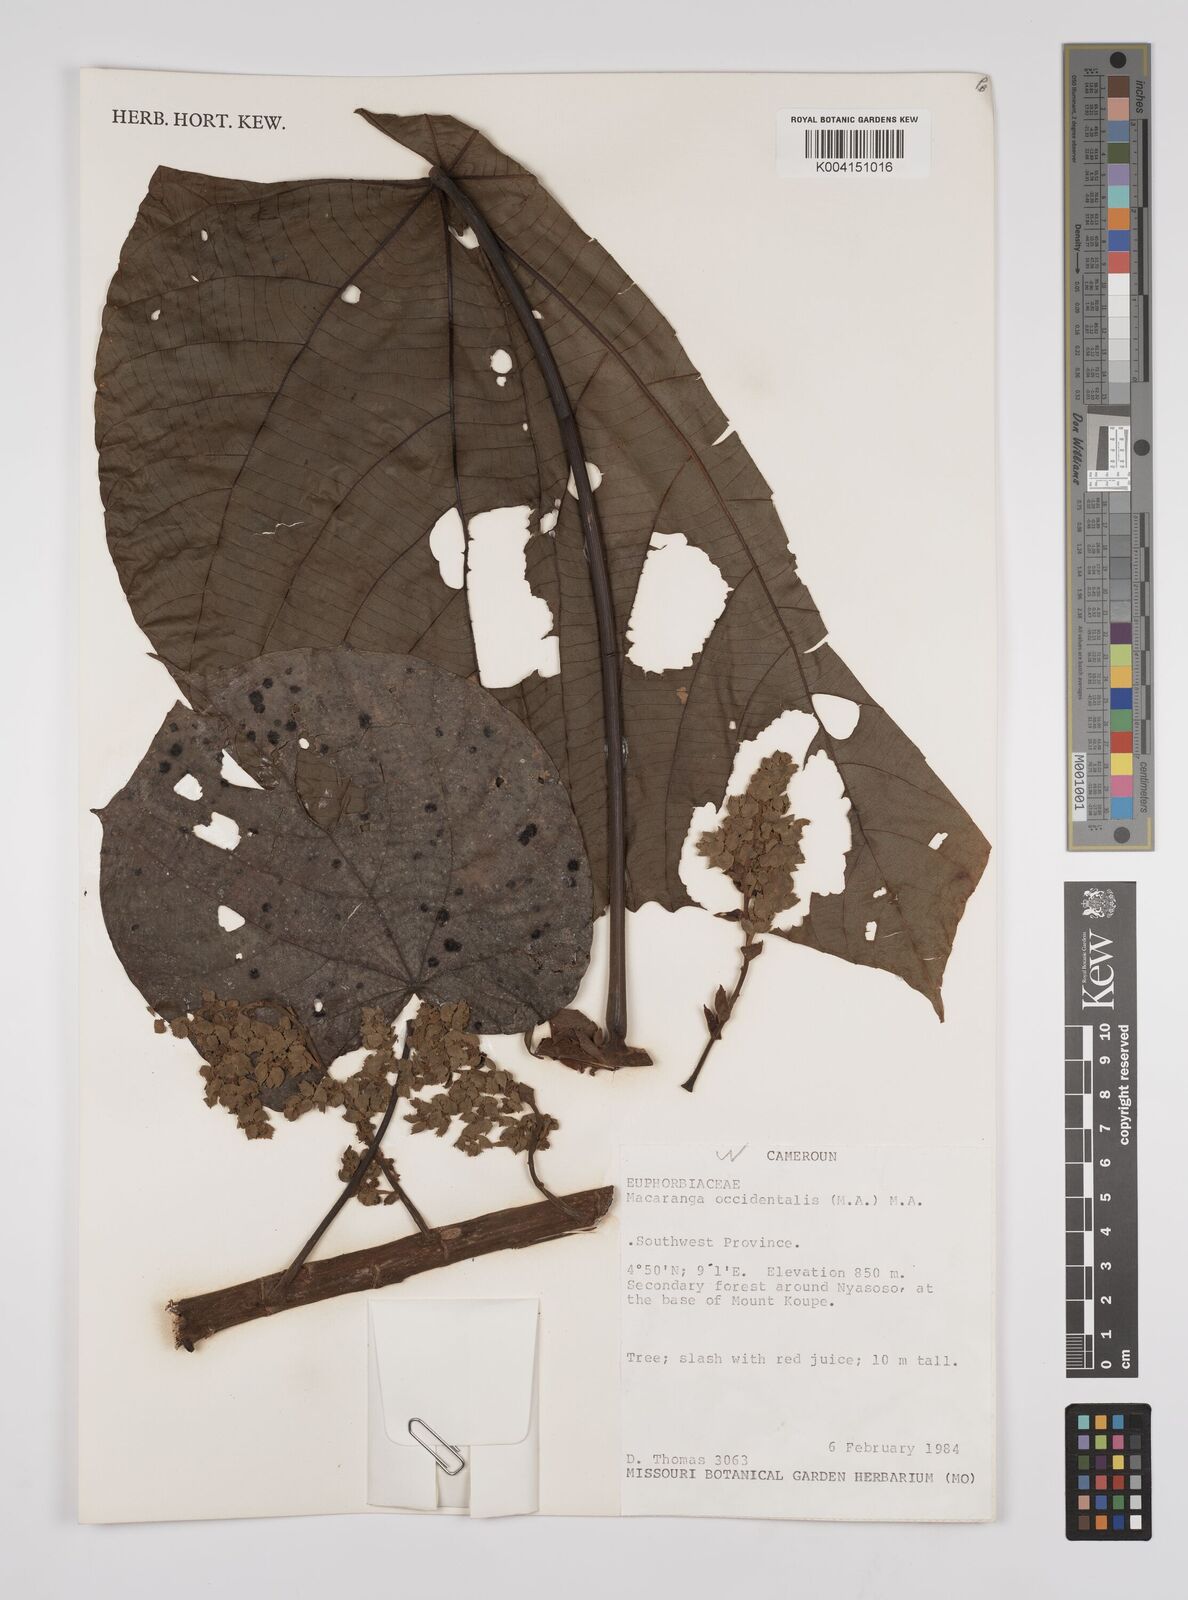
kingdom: Plantae
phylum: Tracheophyta
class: Magnoliopsida
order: Malpighiales
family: Euphorbiaceae
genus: Macaranga
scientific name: Macaranga occidentalis
